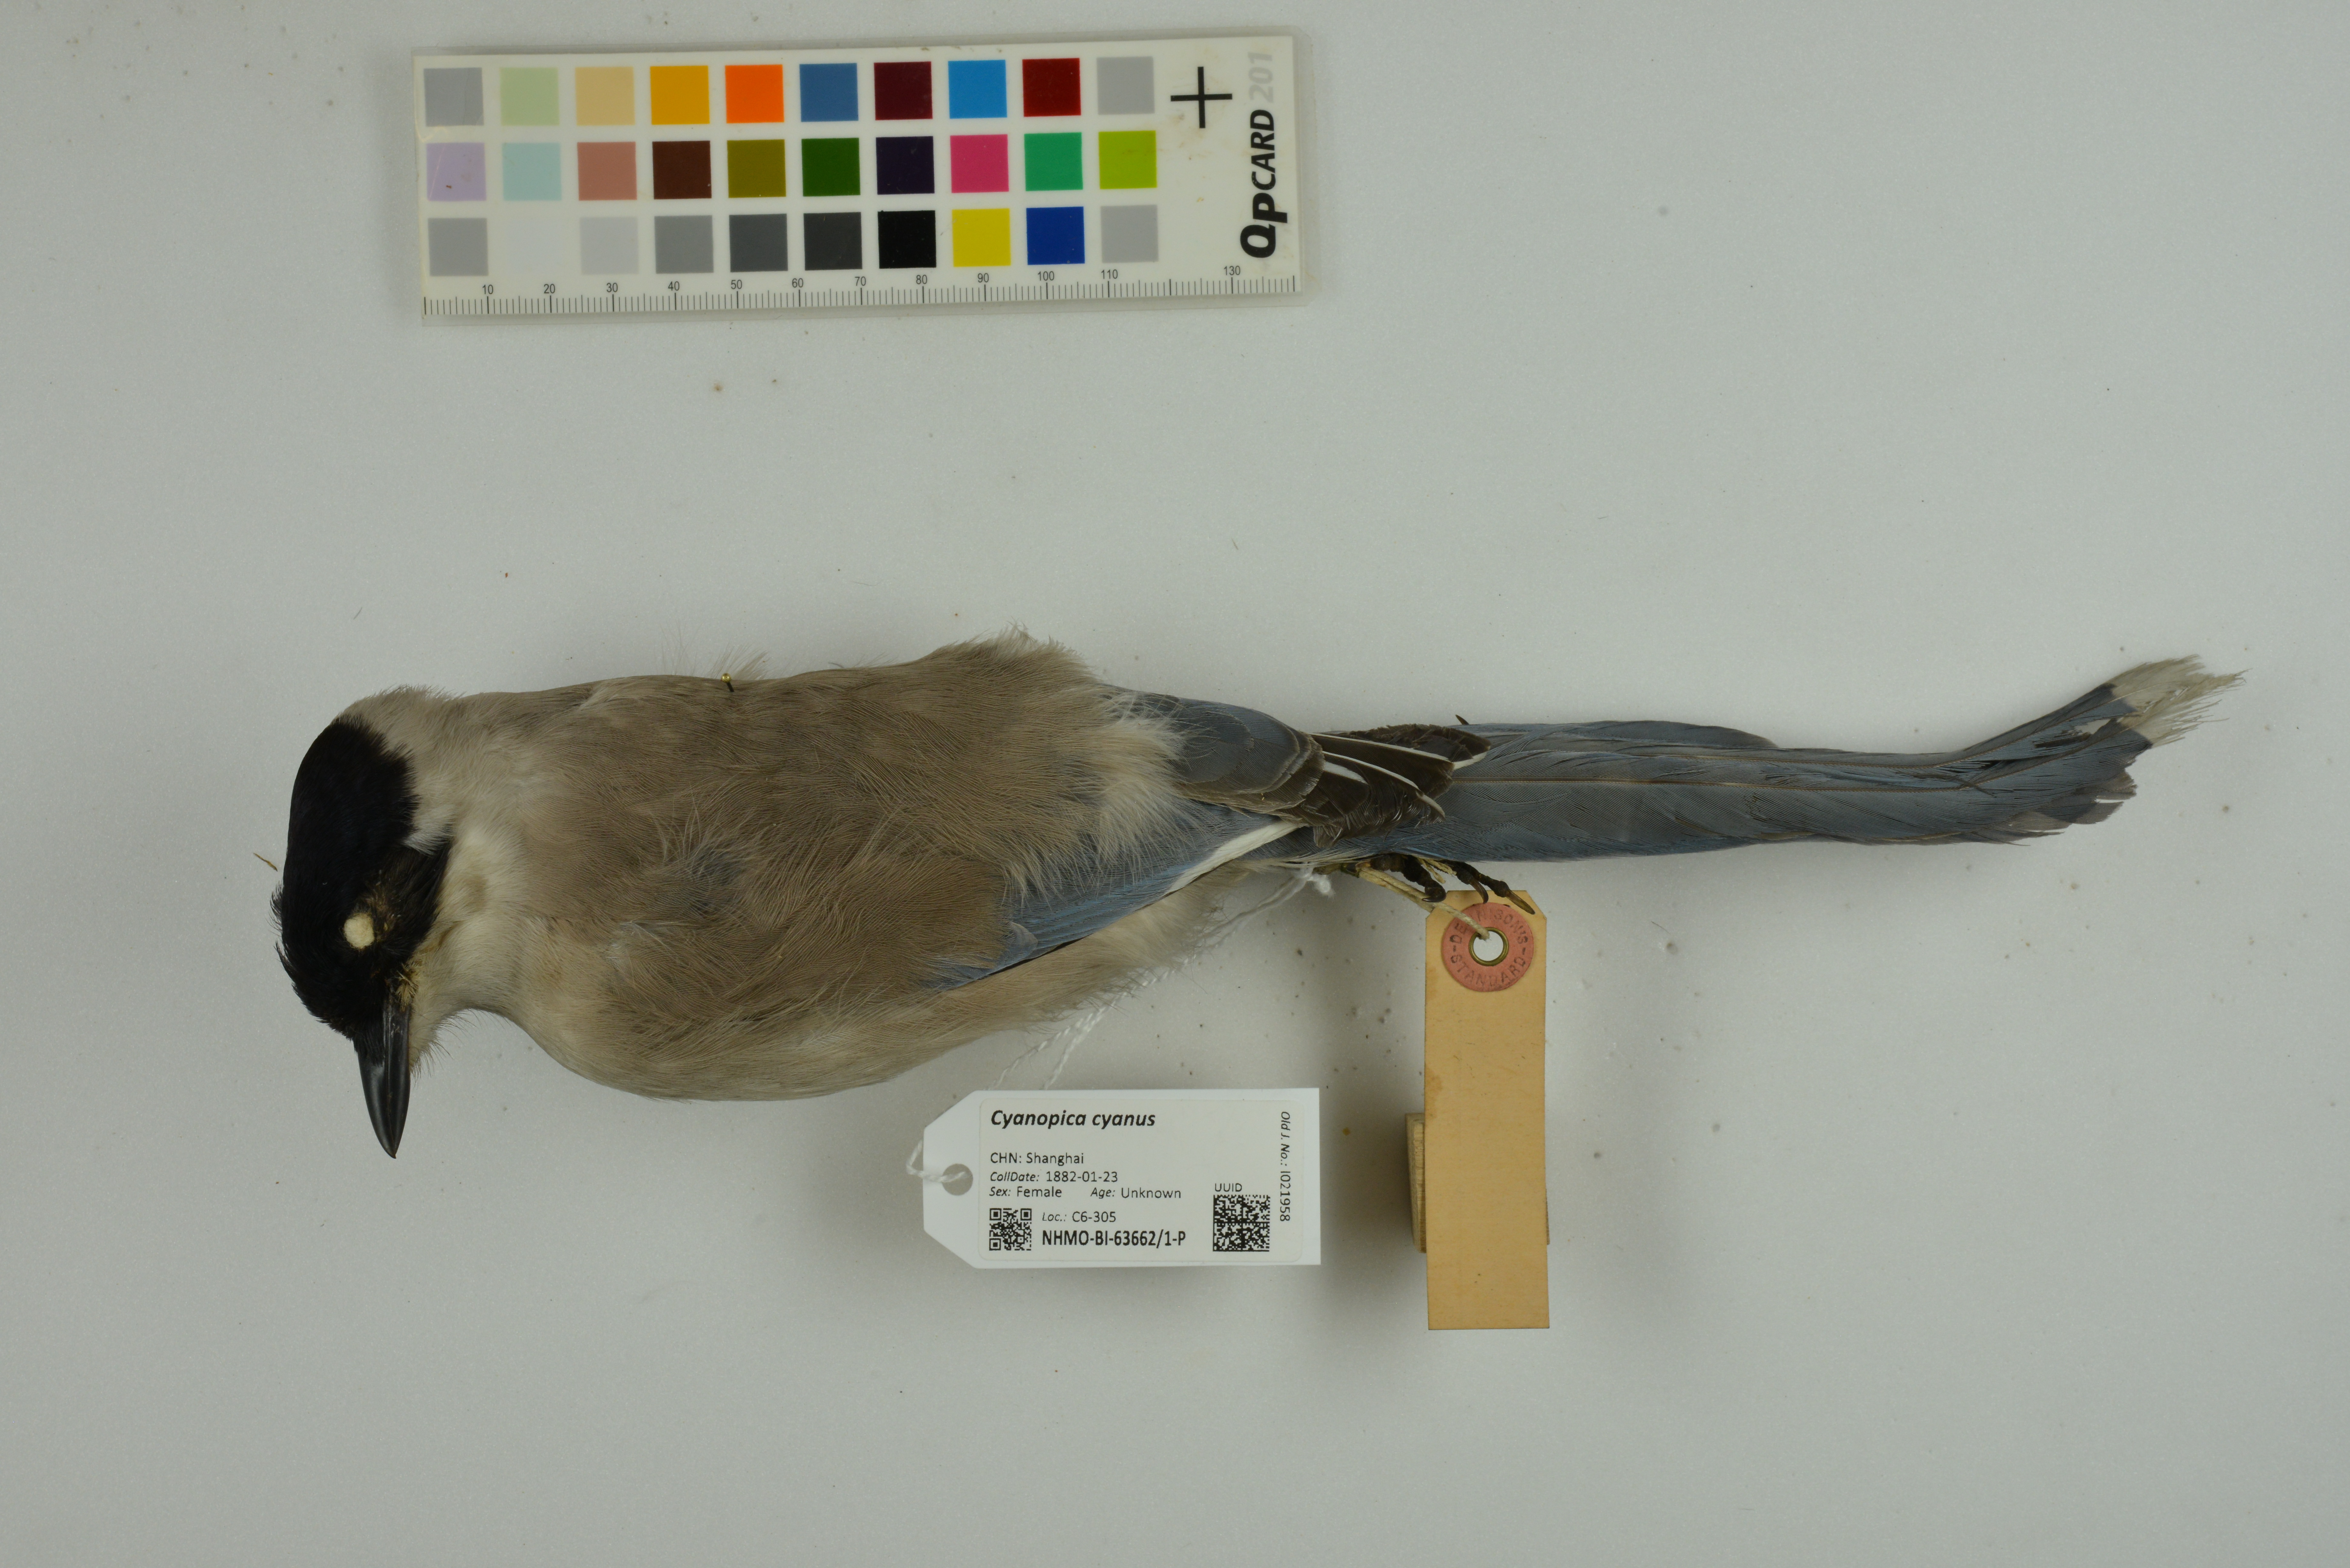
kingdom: Animalia
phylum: Chordata
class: Aves
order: Passeriformes
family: Corvidae
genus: Cyanopica
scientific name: Cyanopica cyanus
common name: Azure-winged magpie
